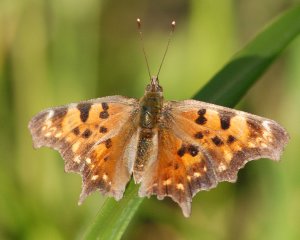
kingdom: Animalia
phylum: Arthropoda
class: Insecta
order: Lepidoptera
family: Nymphalidae
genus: Polygonia
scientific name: Polygonia satyrus
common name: Satyr Comma
